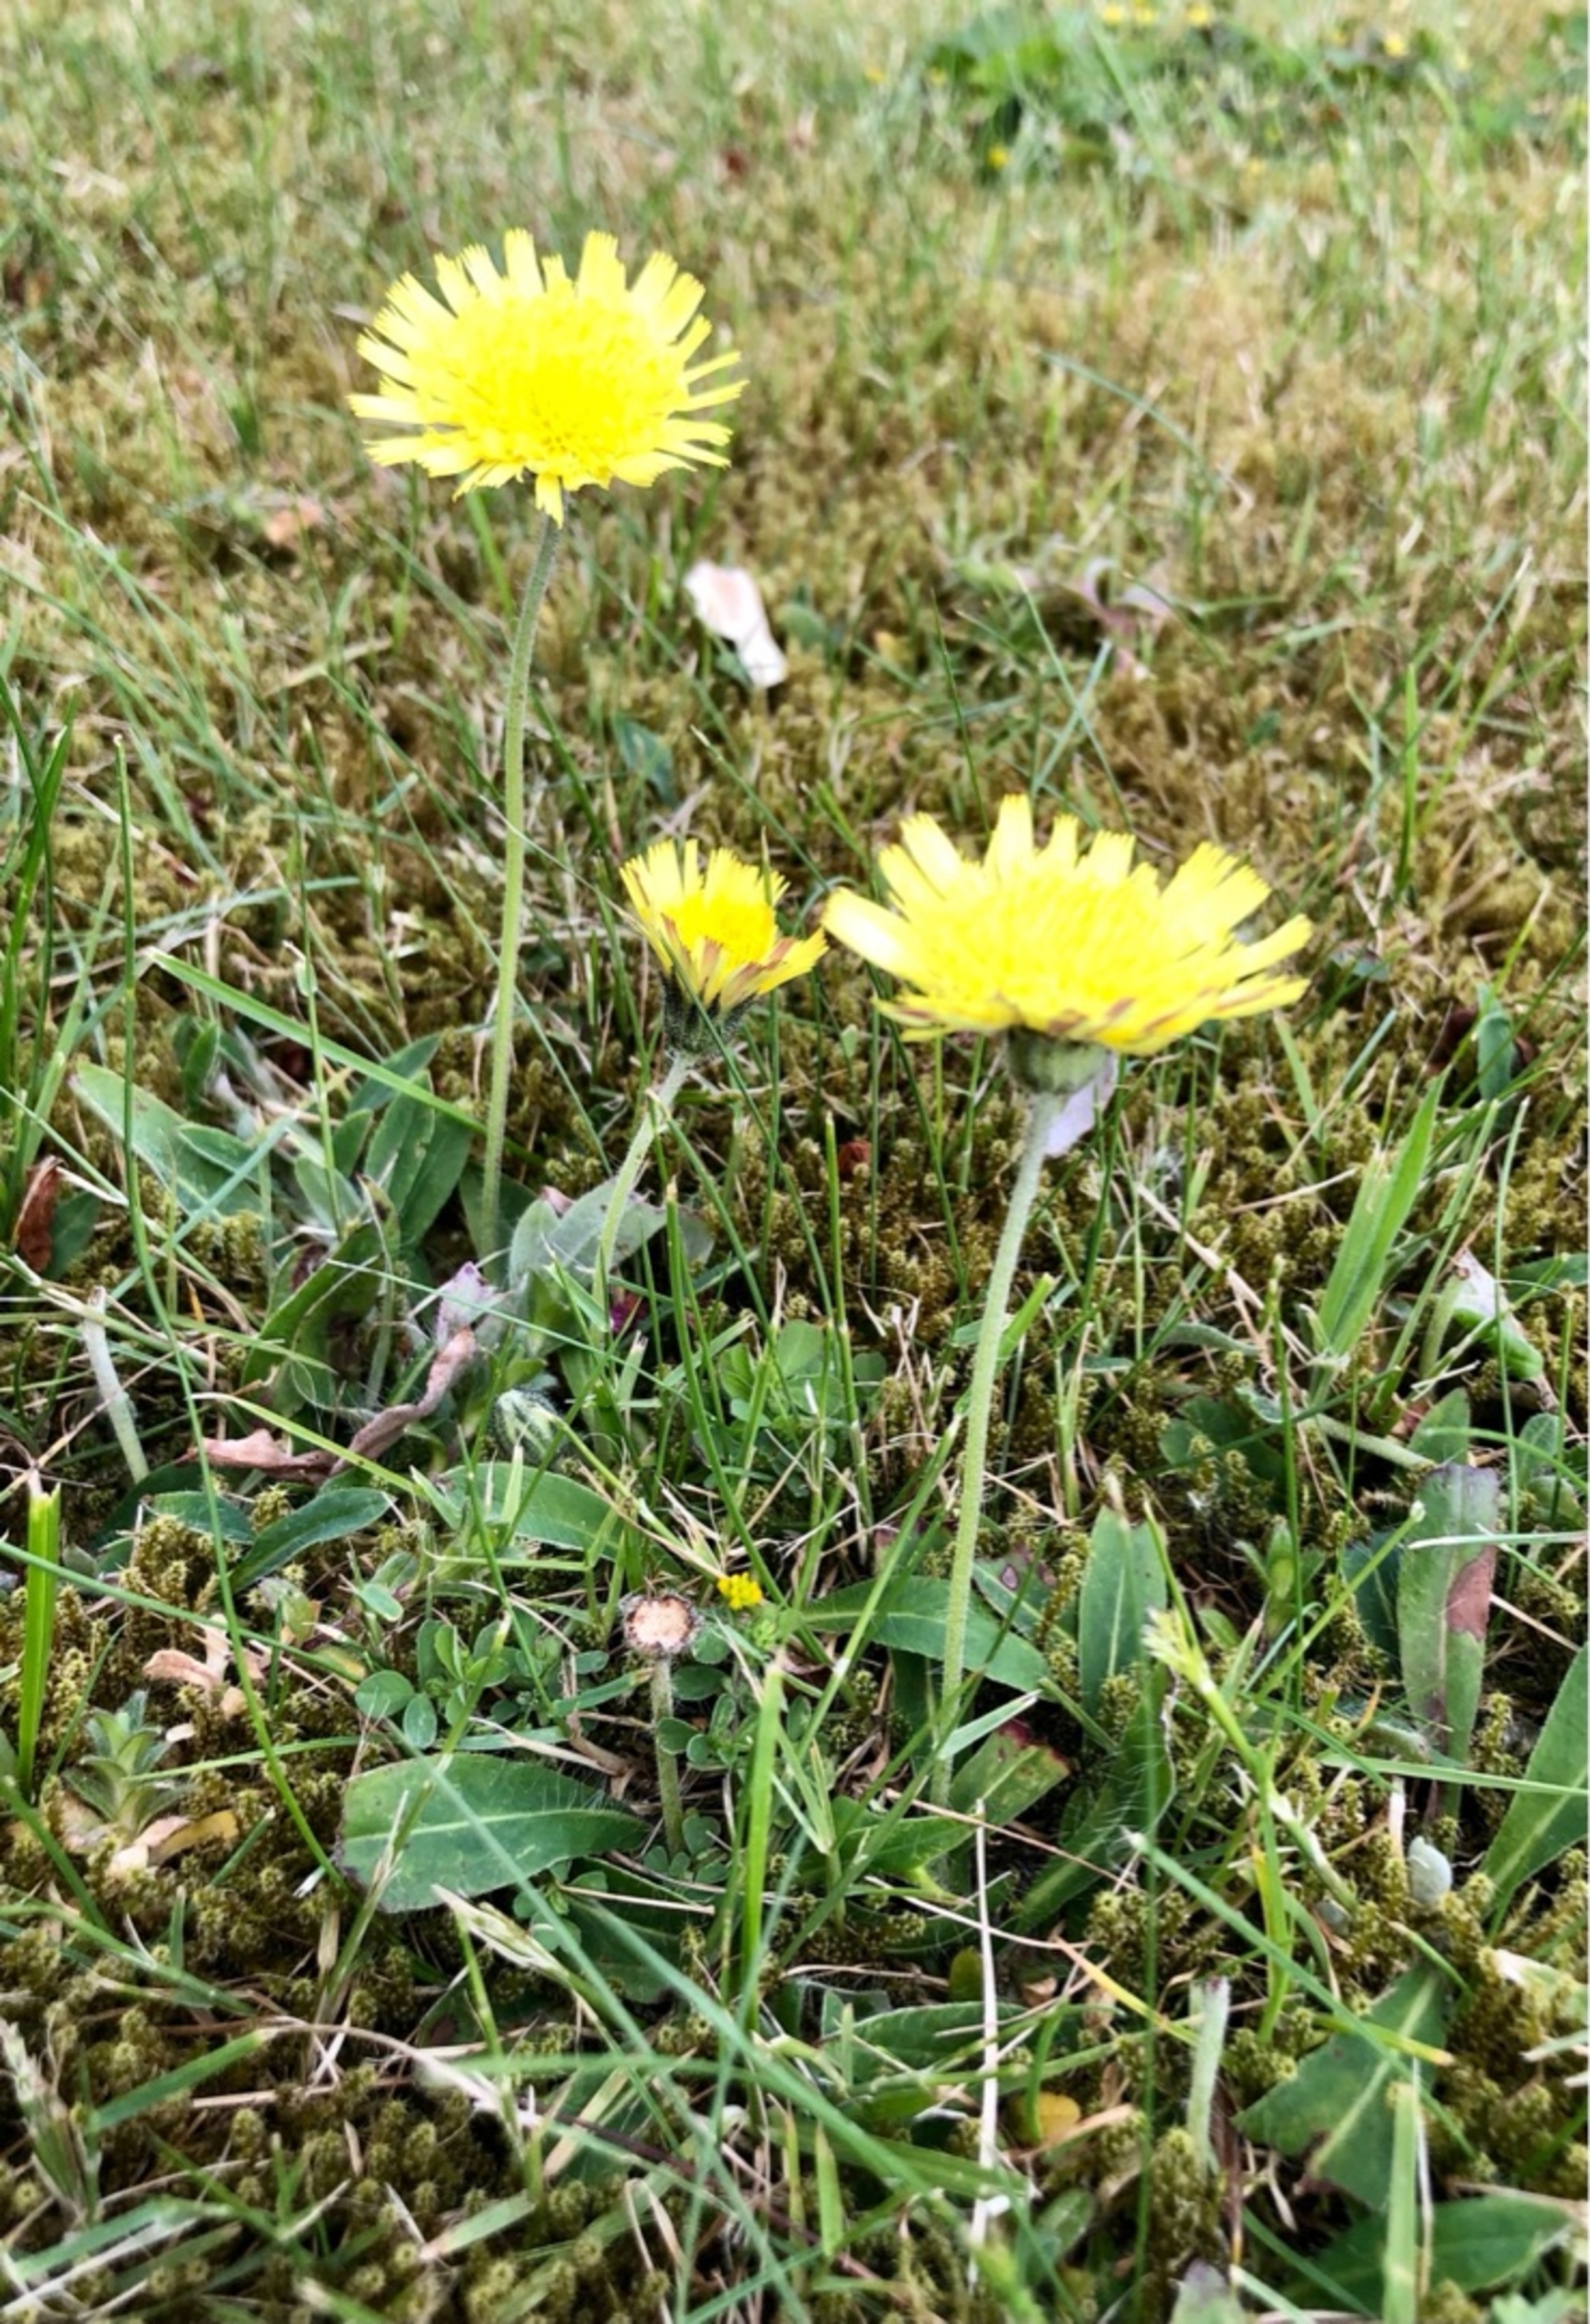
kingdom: Plantae
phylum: Tracheophyta
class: Magnoliopsida
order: Asterales
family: Asteraceae
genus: Pilosella
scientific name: Pilosella officinarum
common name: Håret høgeurt
